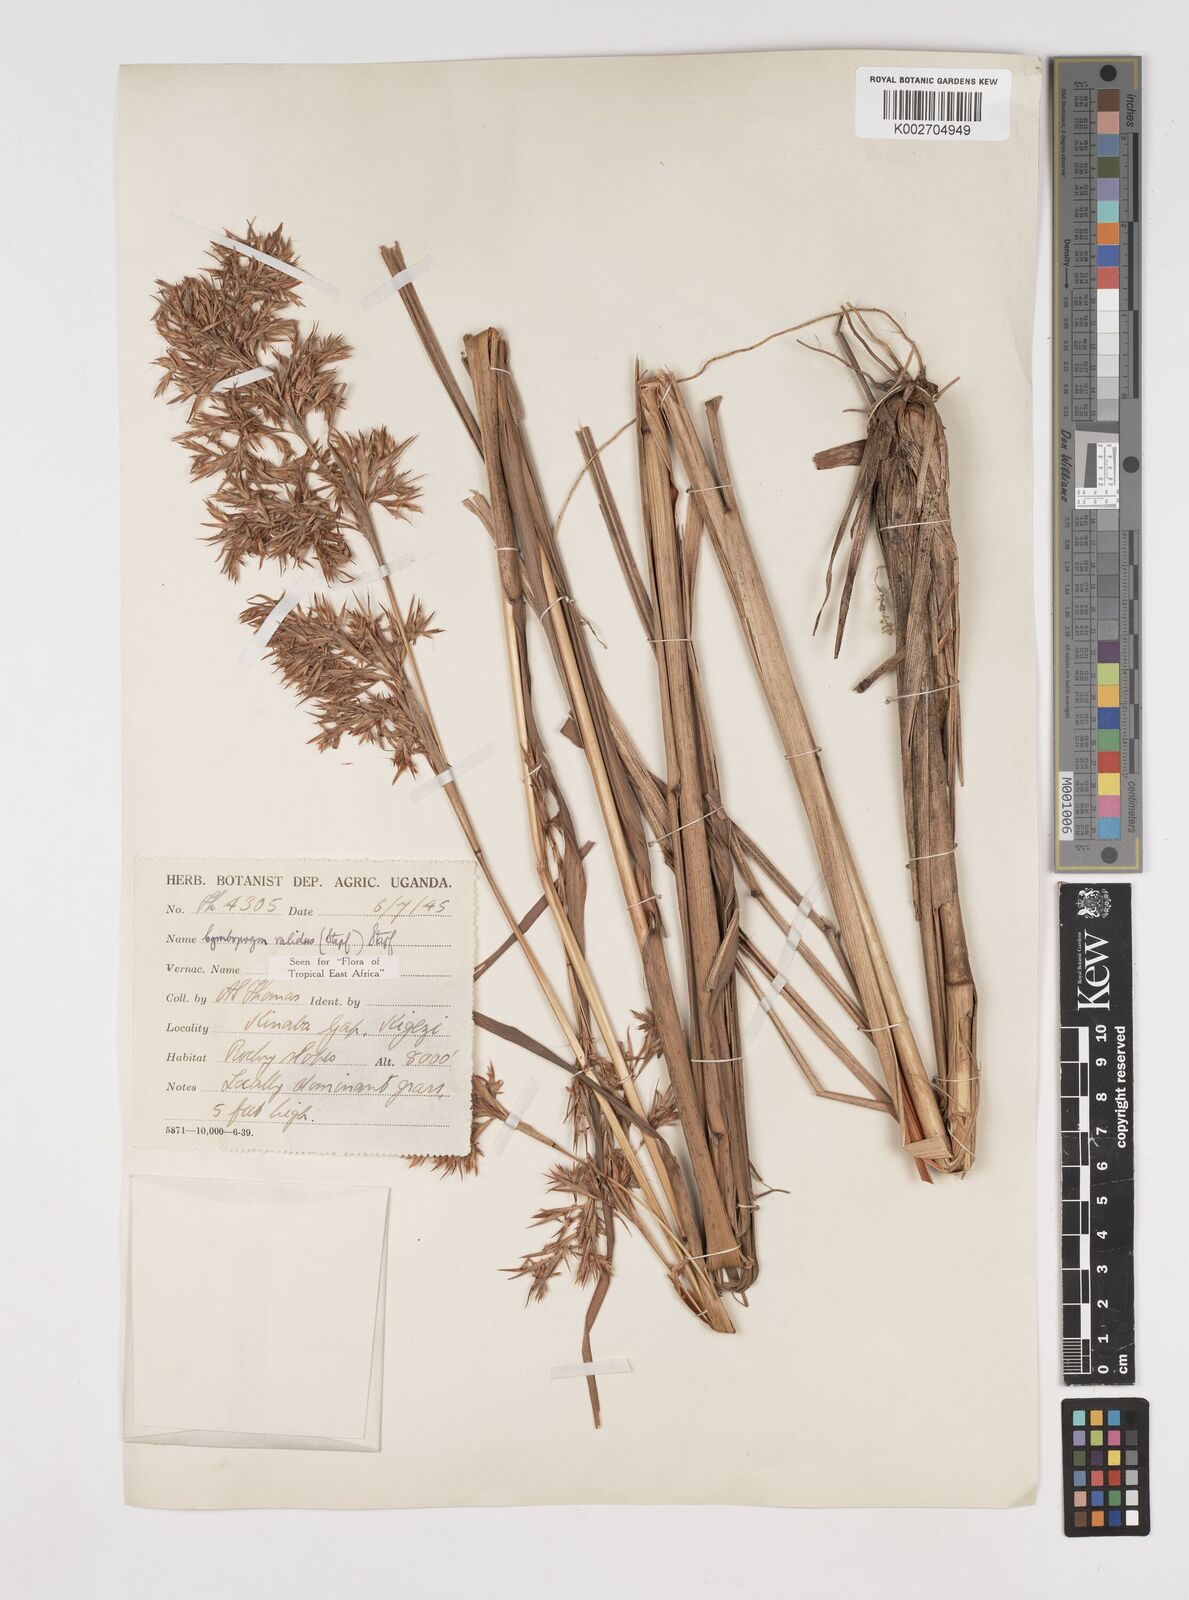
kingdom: Plantae
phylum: Tracheophyta
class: Liliopsida
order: Poales
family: Poaceae
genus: Cymbopogon
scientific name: Cymbopogon nardus
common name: Giant turpentine grass
